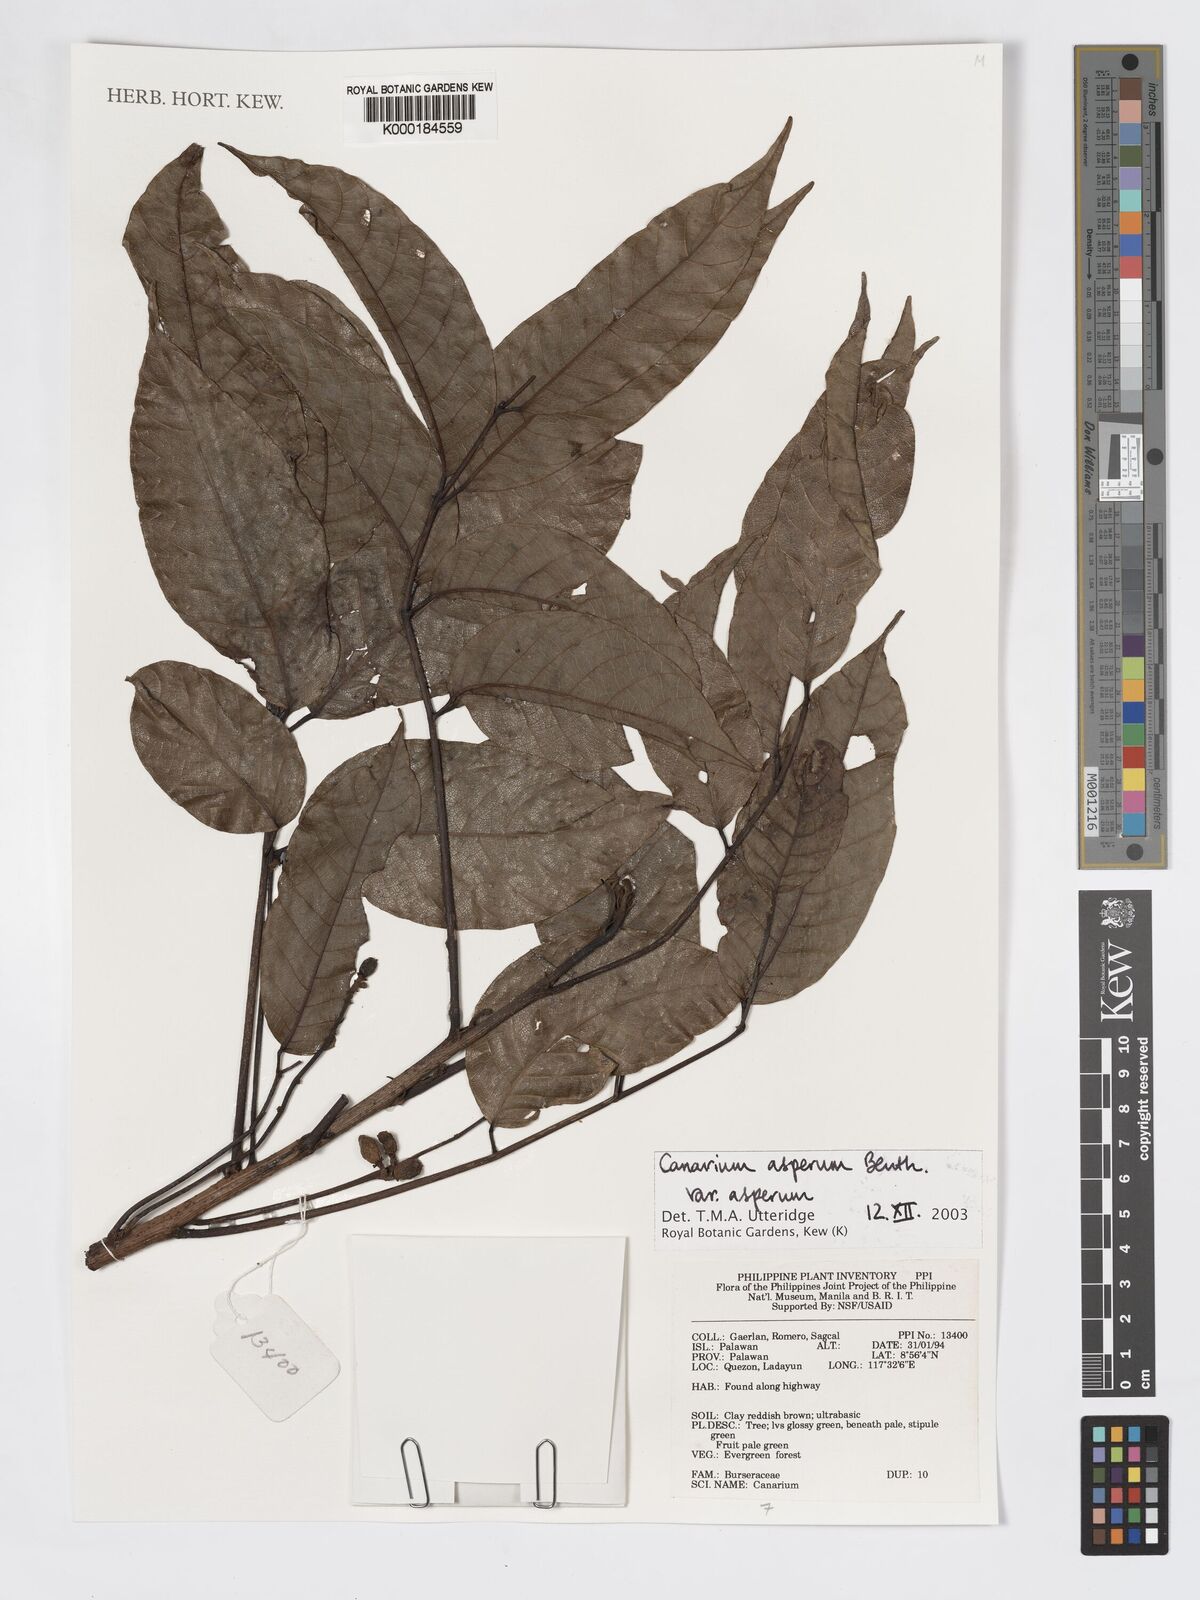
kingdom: Plantae
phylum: Tracheophyta
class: Magnoliopsida
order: Sapindales
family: Burseraceae
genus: Canarium
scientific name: Canarium asperum
